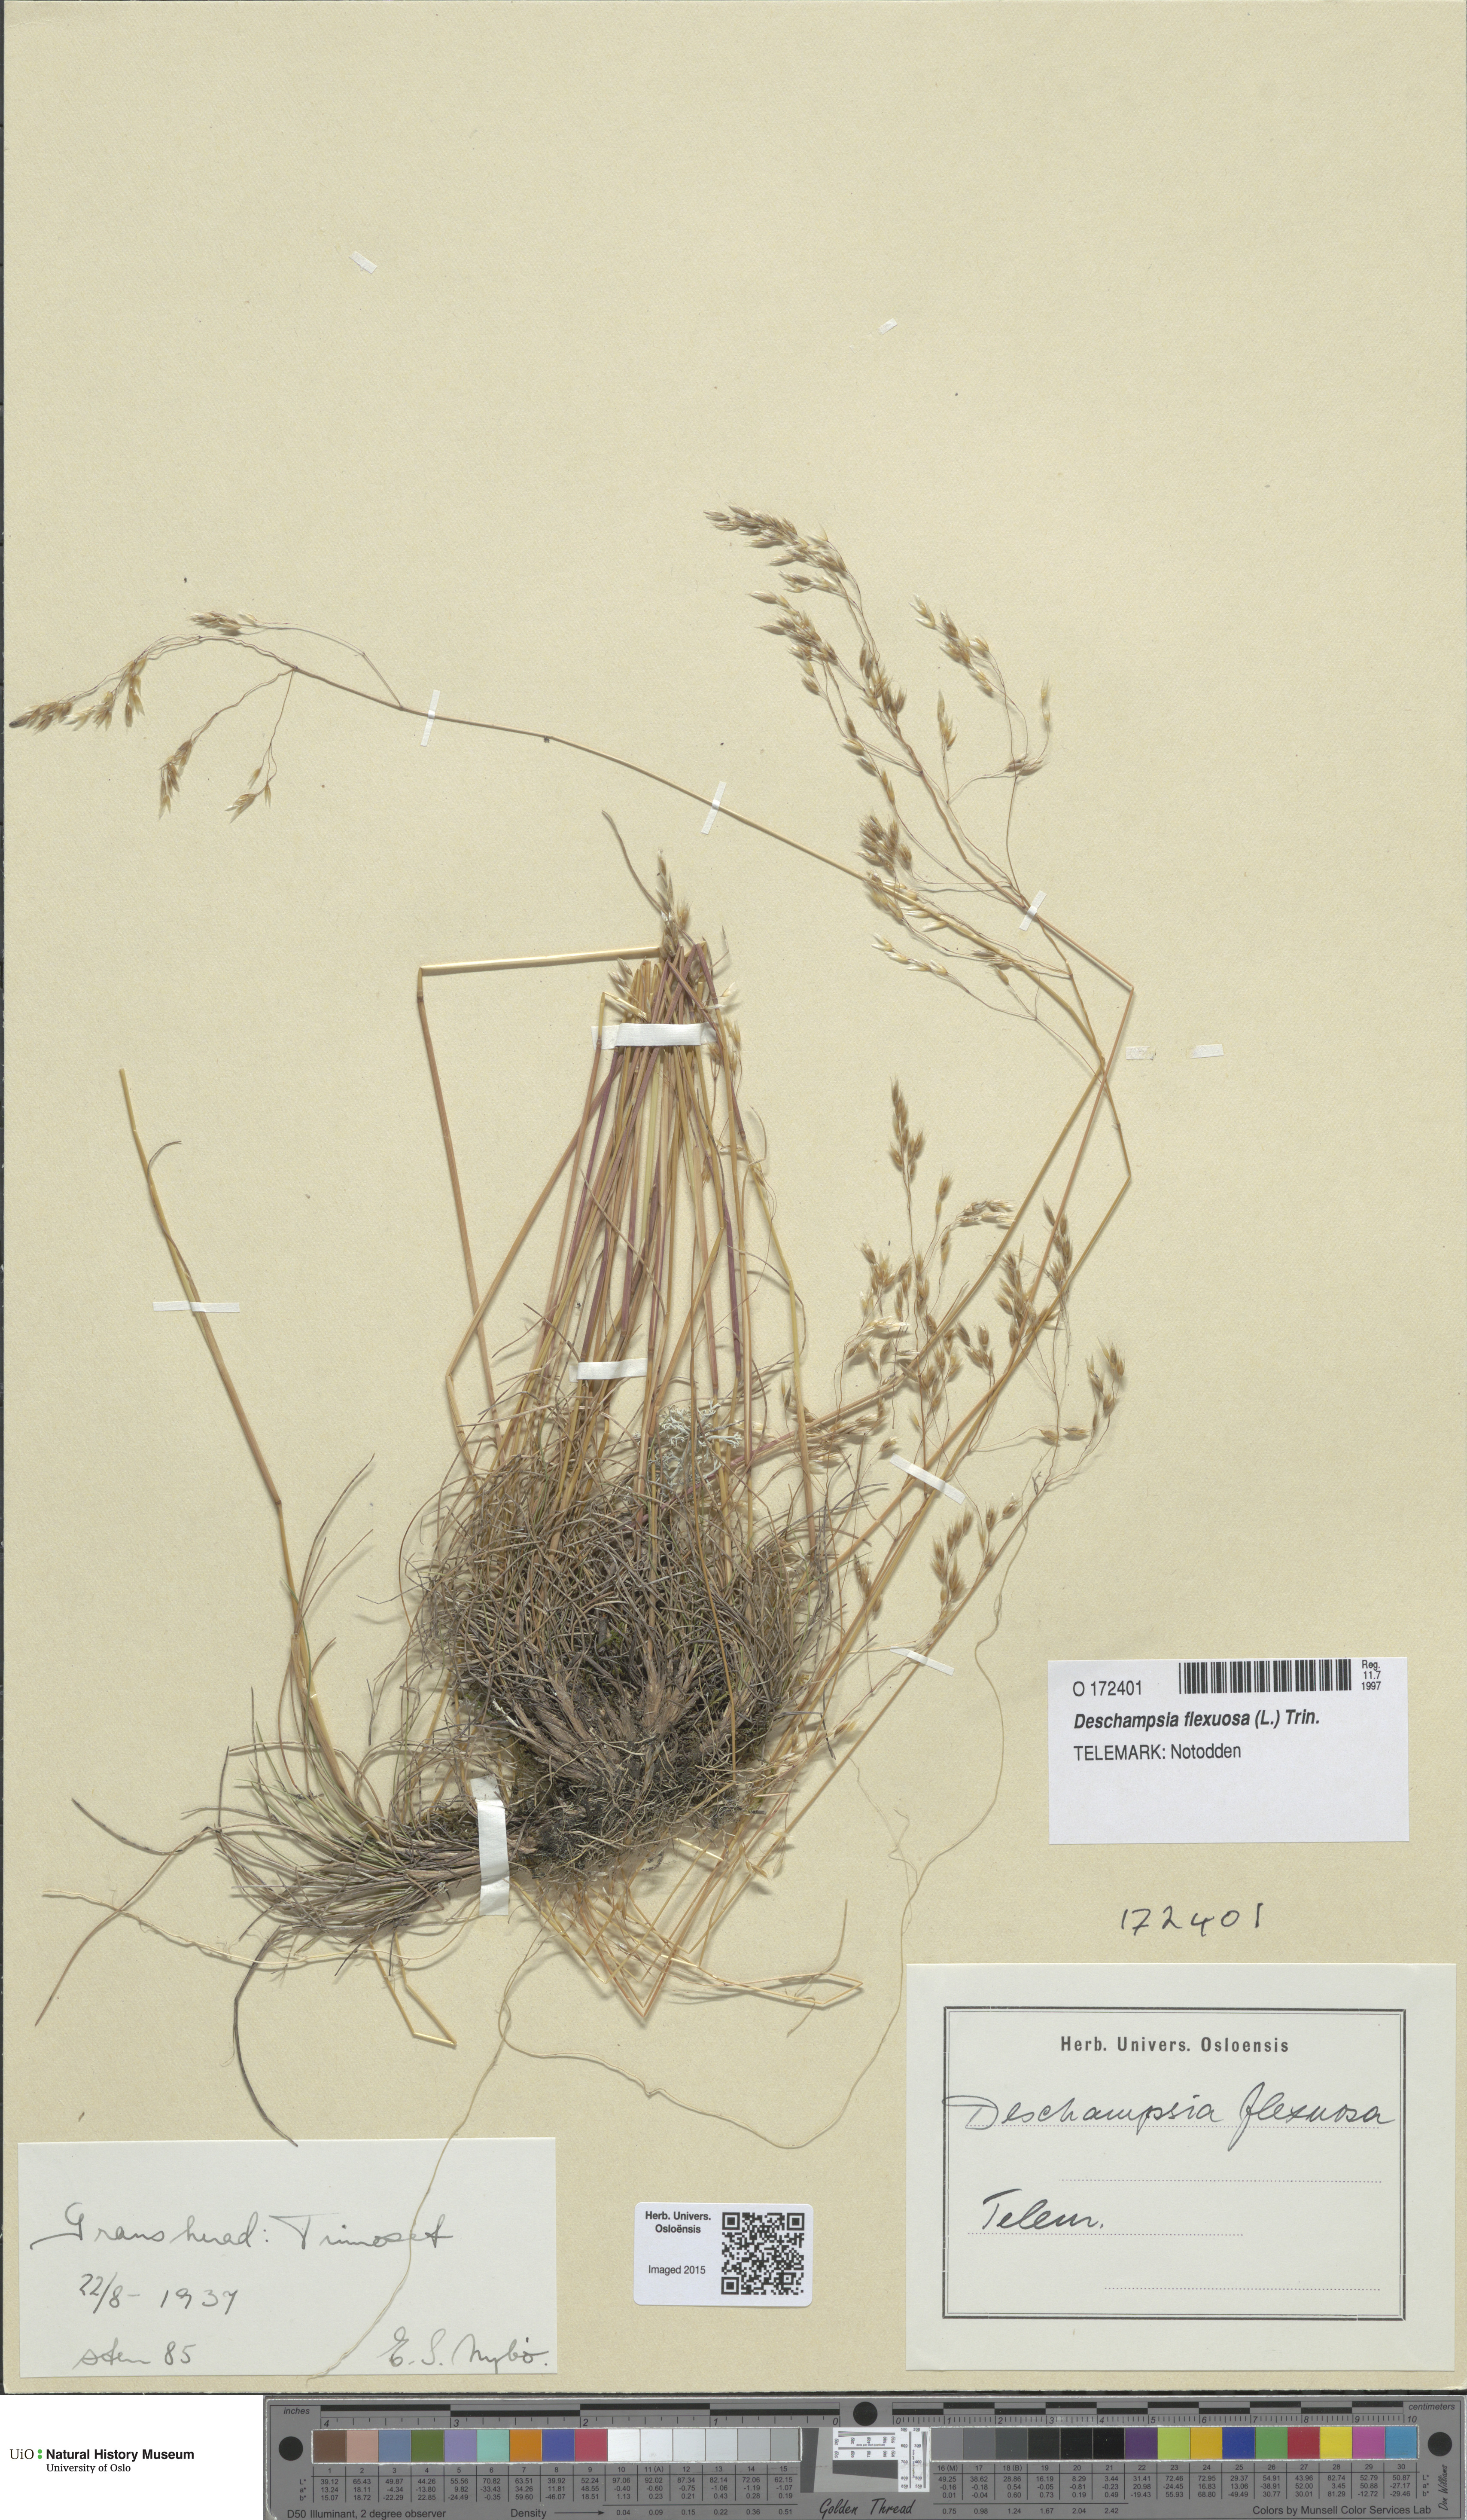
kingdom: Plantae
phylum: Tracheophyta
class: Liliopsida
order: Poales
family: Poaceae
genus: Avenella
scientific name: Avenella flexuosa
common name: Wavy hairgrass
